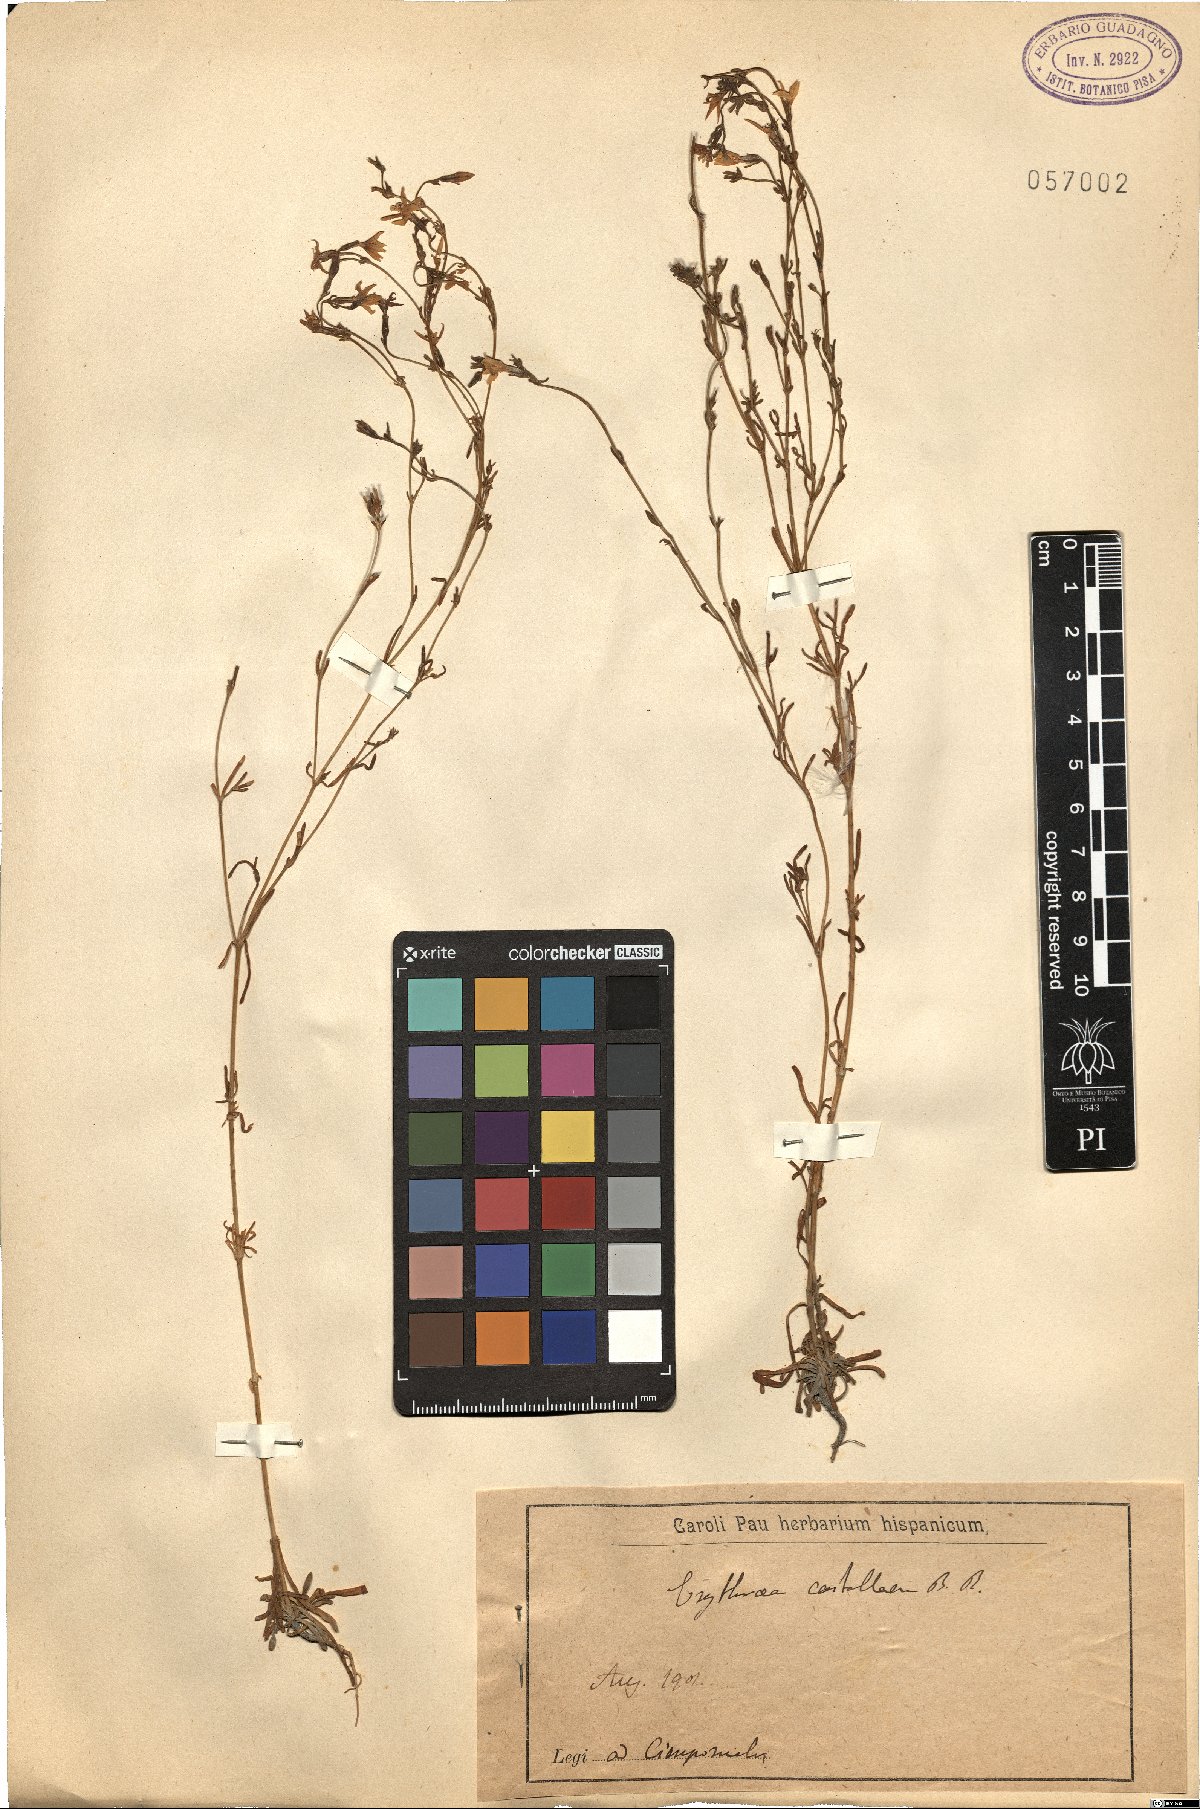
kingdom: Plantae
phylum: Tracheophyta
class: Magnoliopsida
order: Gentianales
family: Gentianaceae
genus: Erythraea
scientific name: Erythraea
